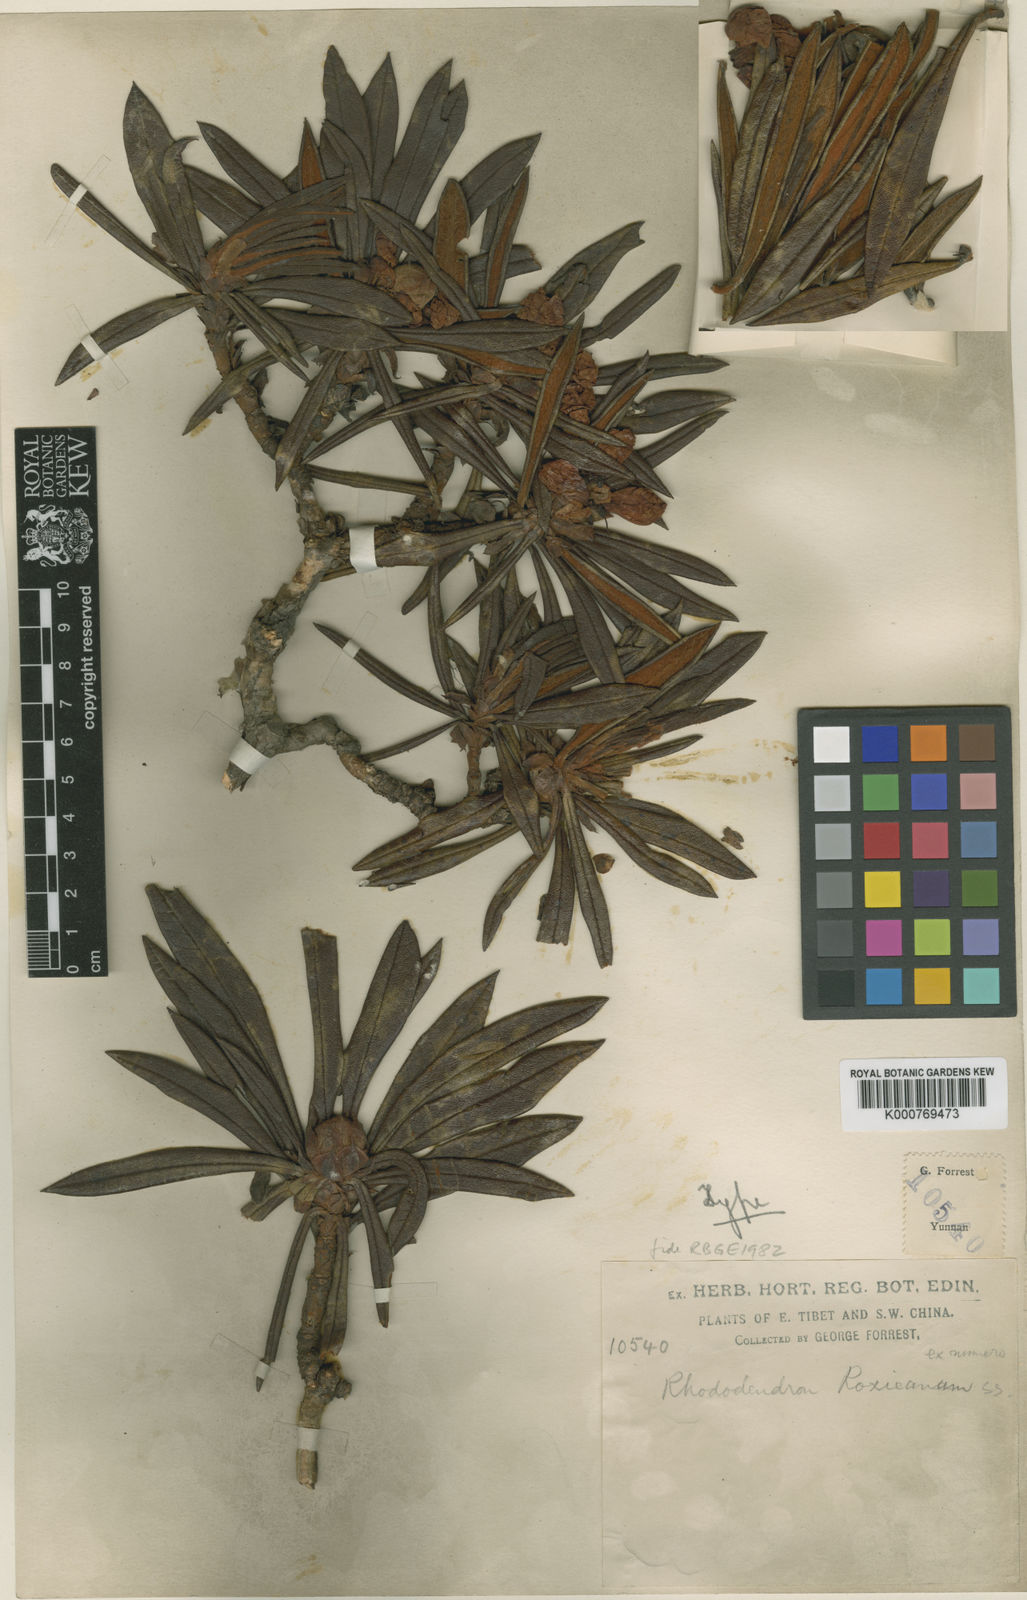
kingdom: Plantae
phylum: Tracheophyta
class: Magnoliopsida
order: Ericales
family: Ericaceae
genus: Rhododendron
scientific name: Rhododendron roxieanum
